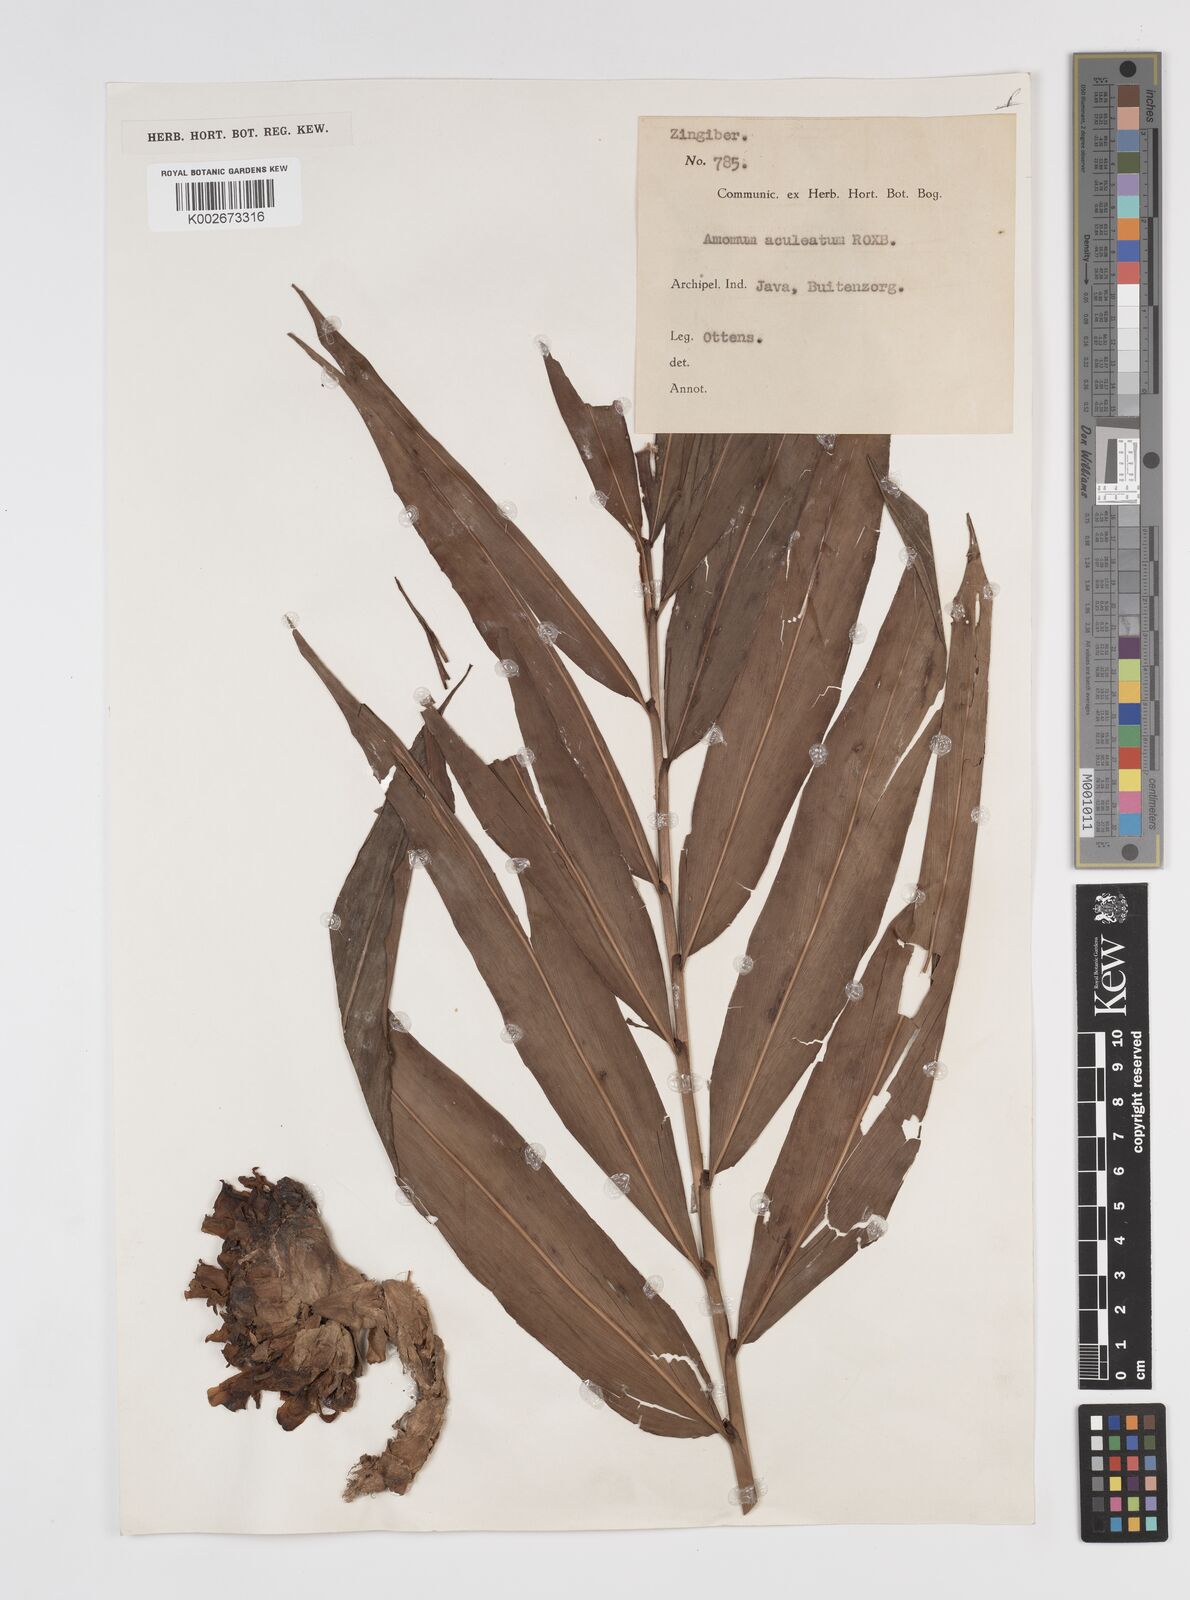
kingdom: Plantae
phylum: Tracheophyta
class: Liliopsida
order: Zingiberales
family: Zingiberaceae
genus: Meistera
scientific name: Meistera aculeata
